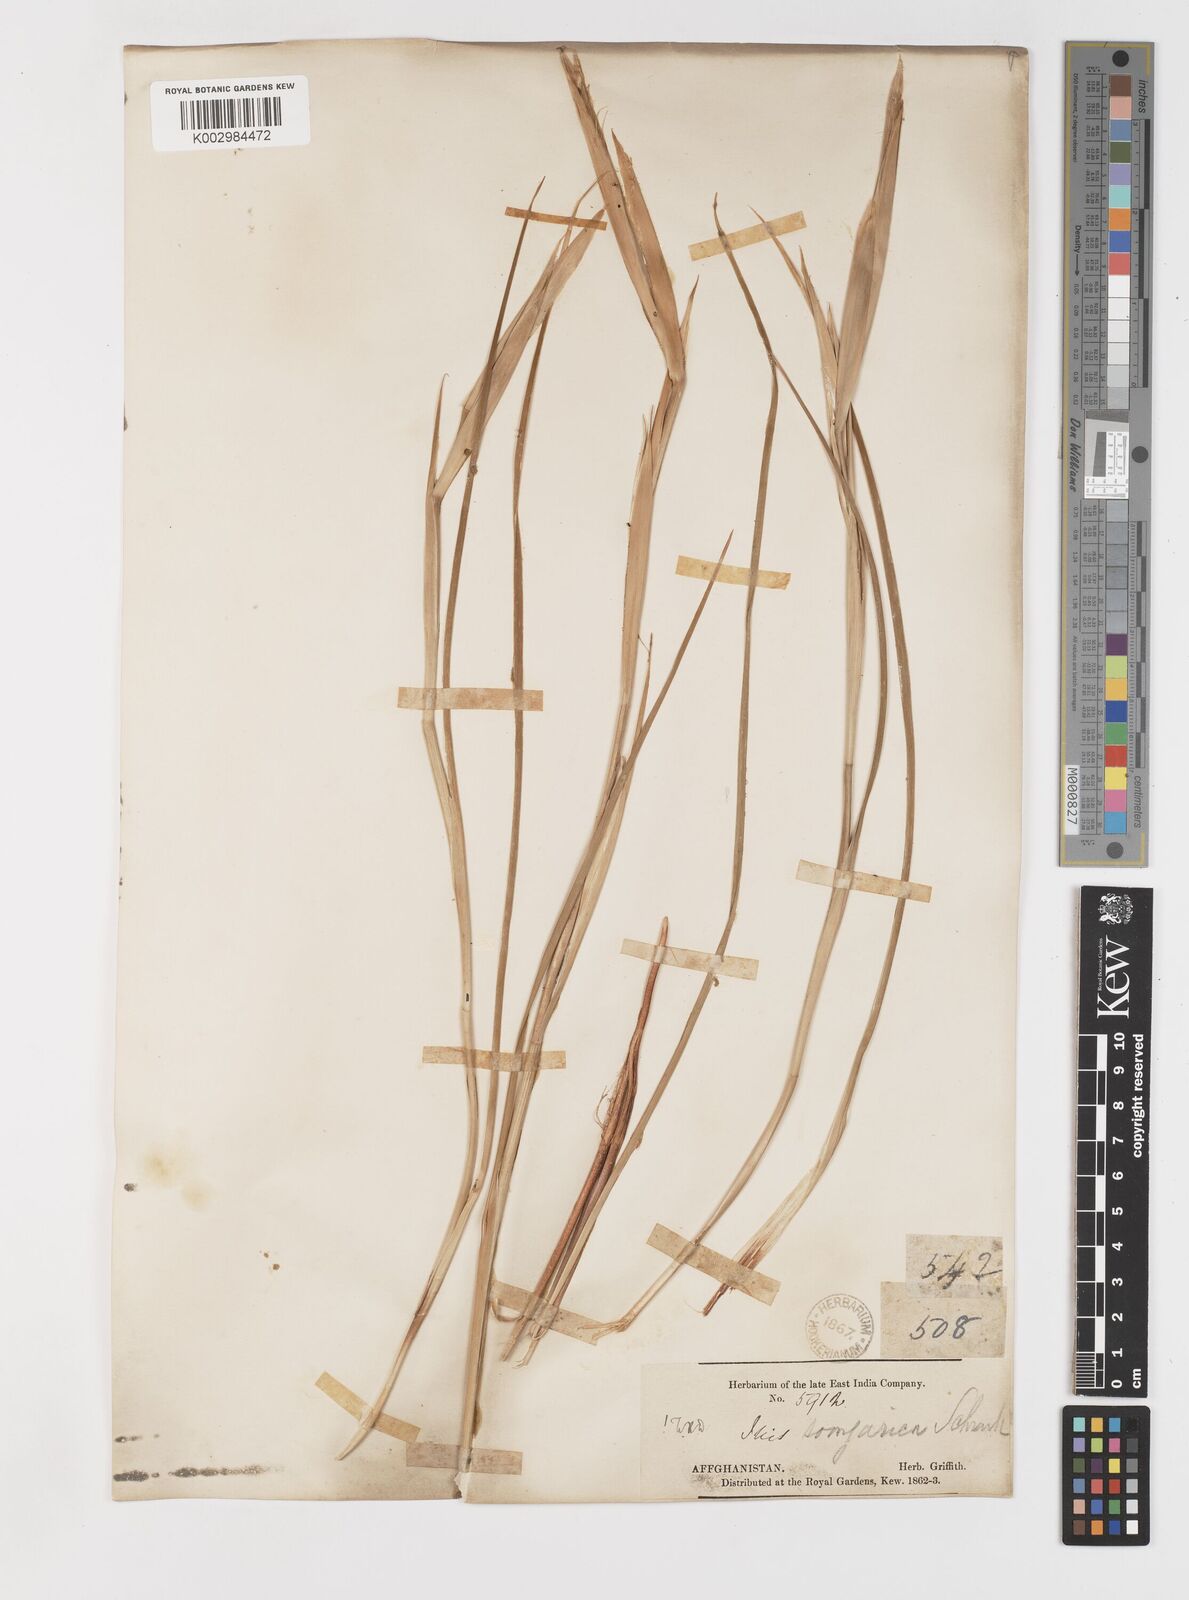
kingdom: Plantae
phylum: Tracheophyta
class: Liliopsida
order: Asparagales
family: Iridaceae
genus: Iris
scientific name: Iris songarica
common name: Songar iris
